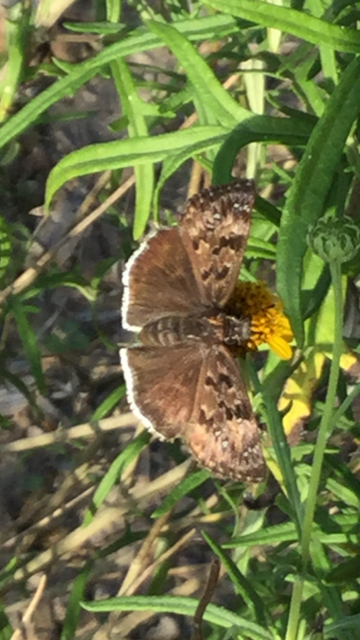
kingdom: Animalia
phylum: Arthropoda
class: Insecta
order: Lepidoptera
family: Hesperiidae
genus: Erynnis
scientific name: Erynnis funeralis
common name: Funereal Duskywing
